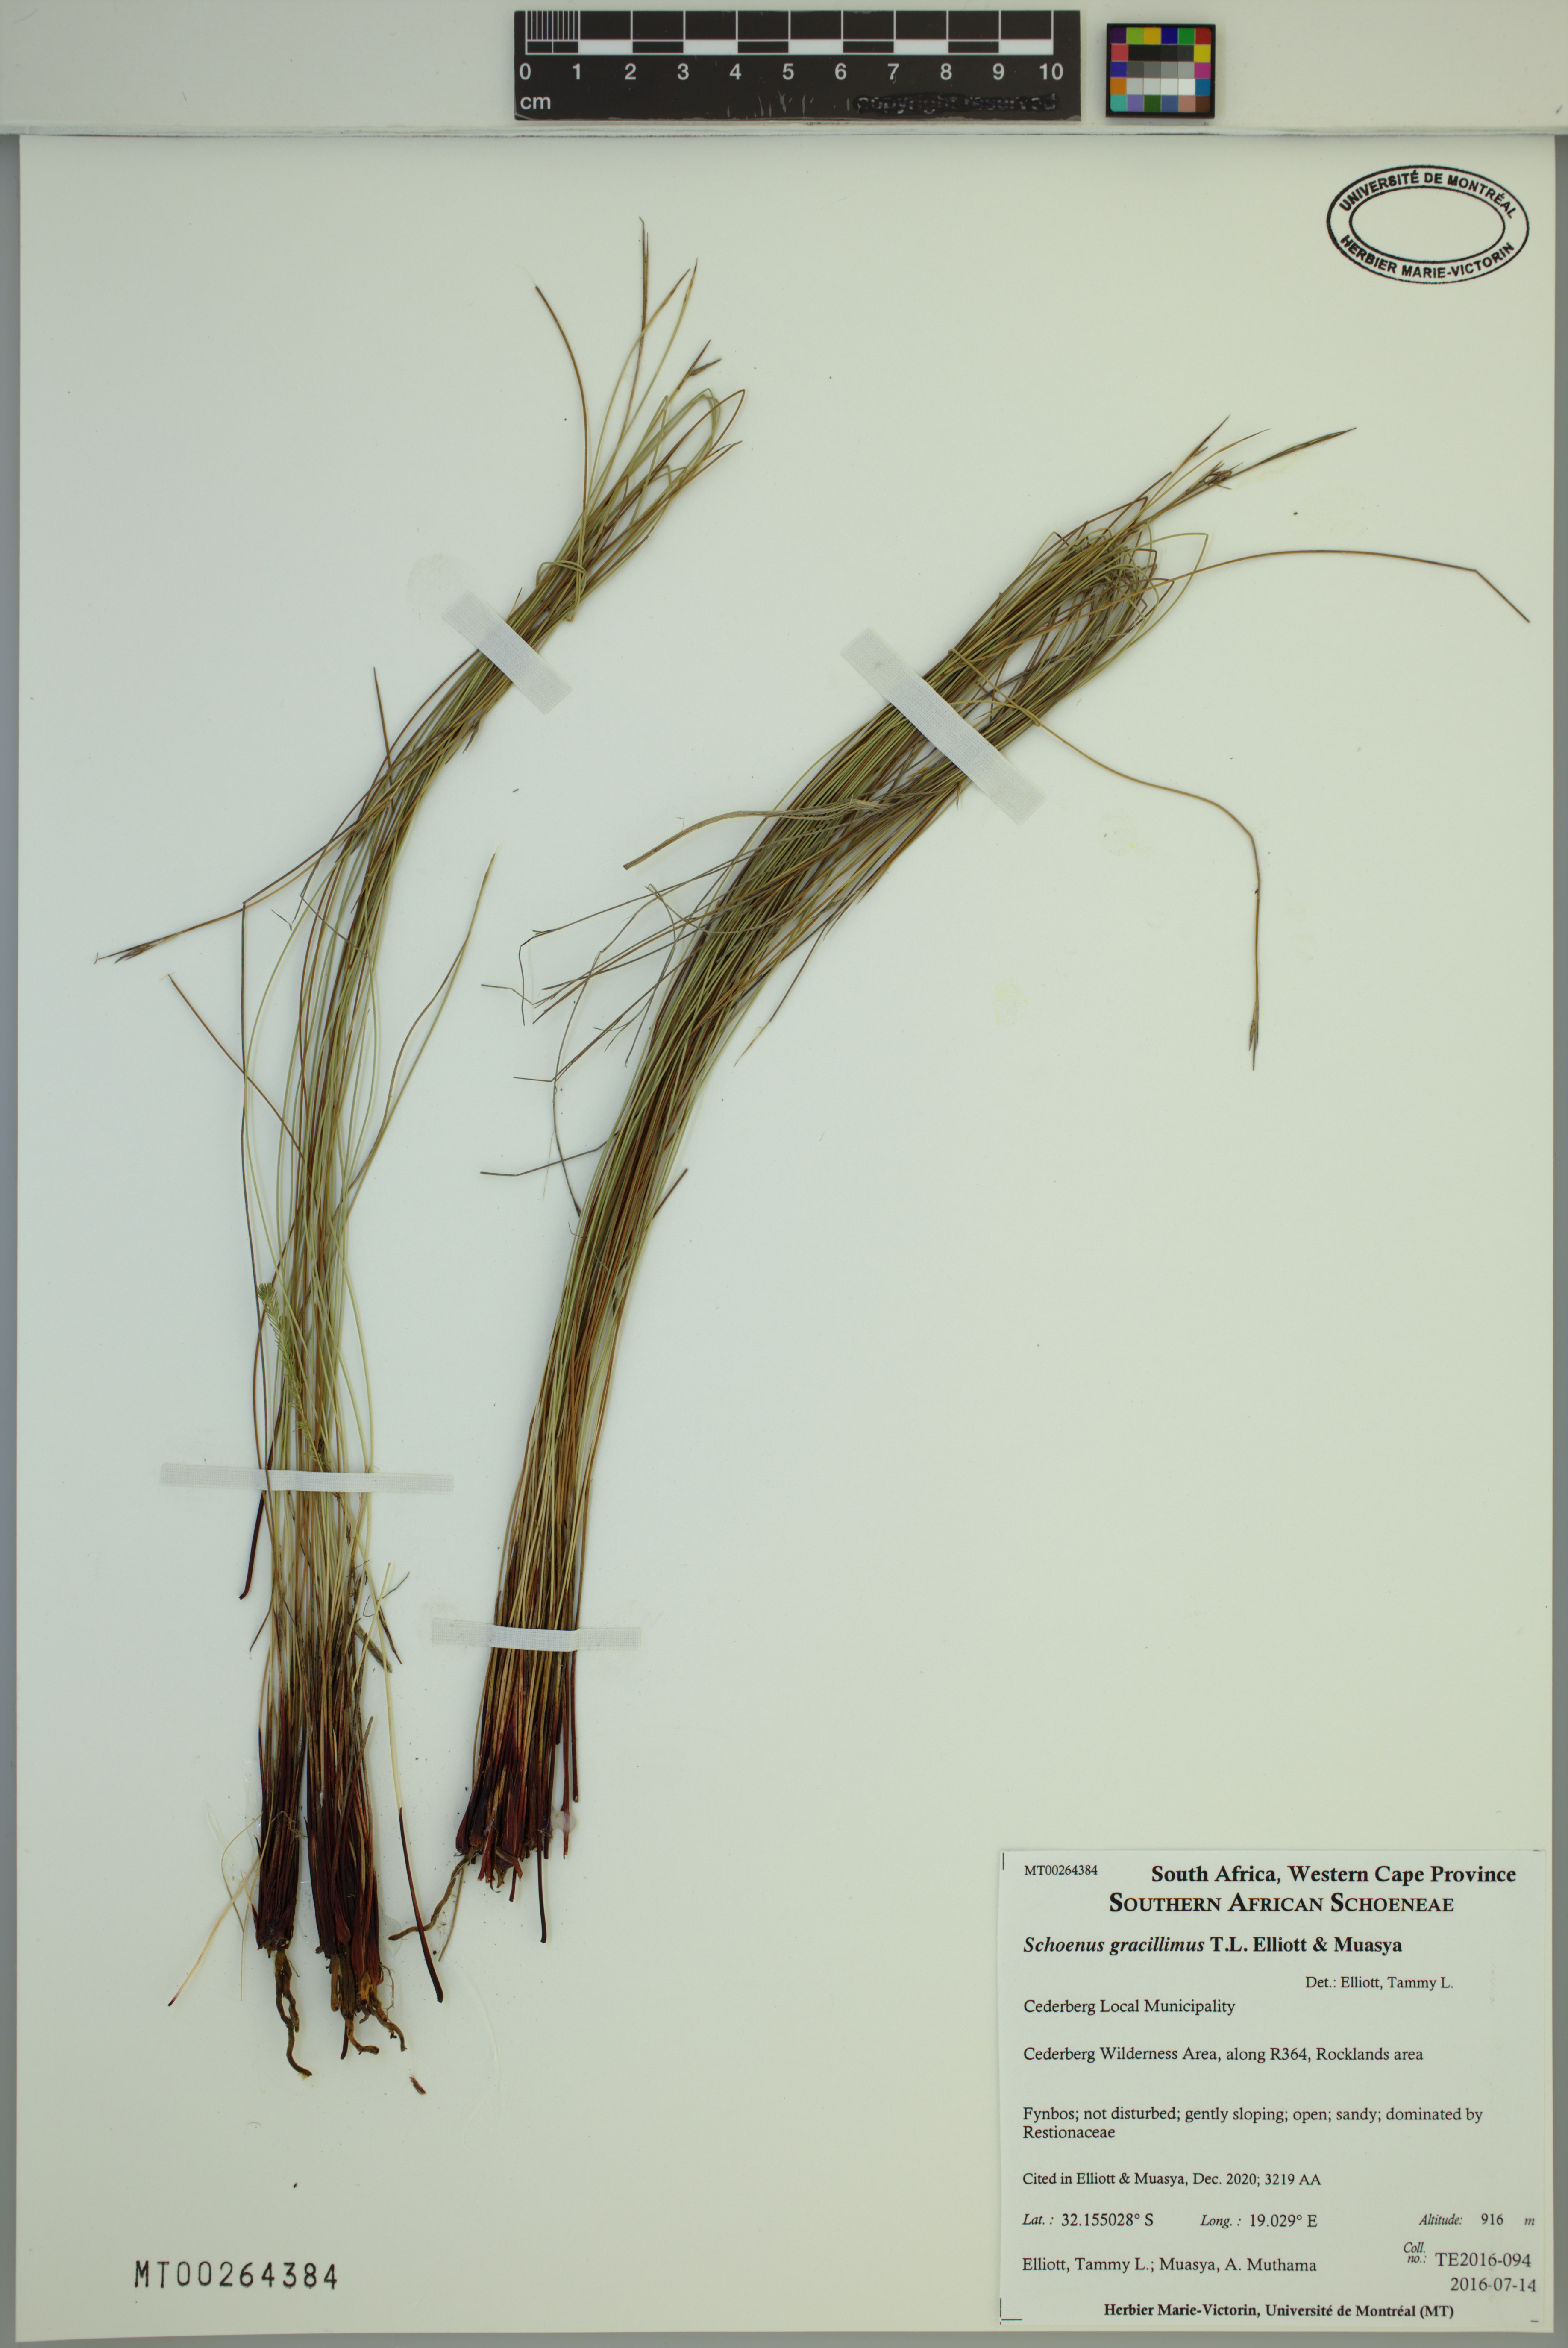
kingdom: Plantae
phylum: Tracheophyta
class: Liliopsida
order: Poales
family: Cyperaceae
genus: Schoenus
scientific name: Schoenus gracillimus
